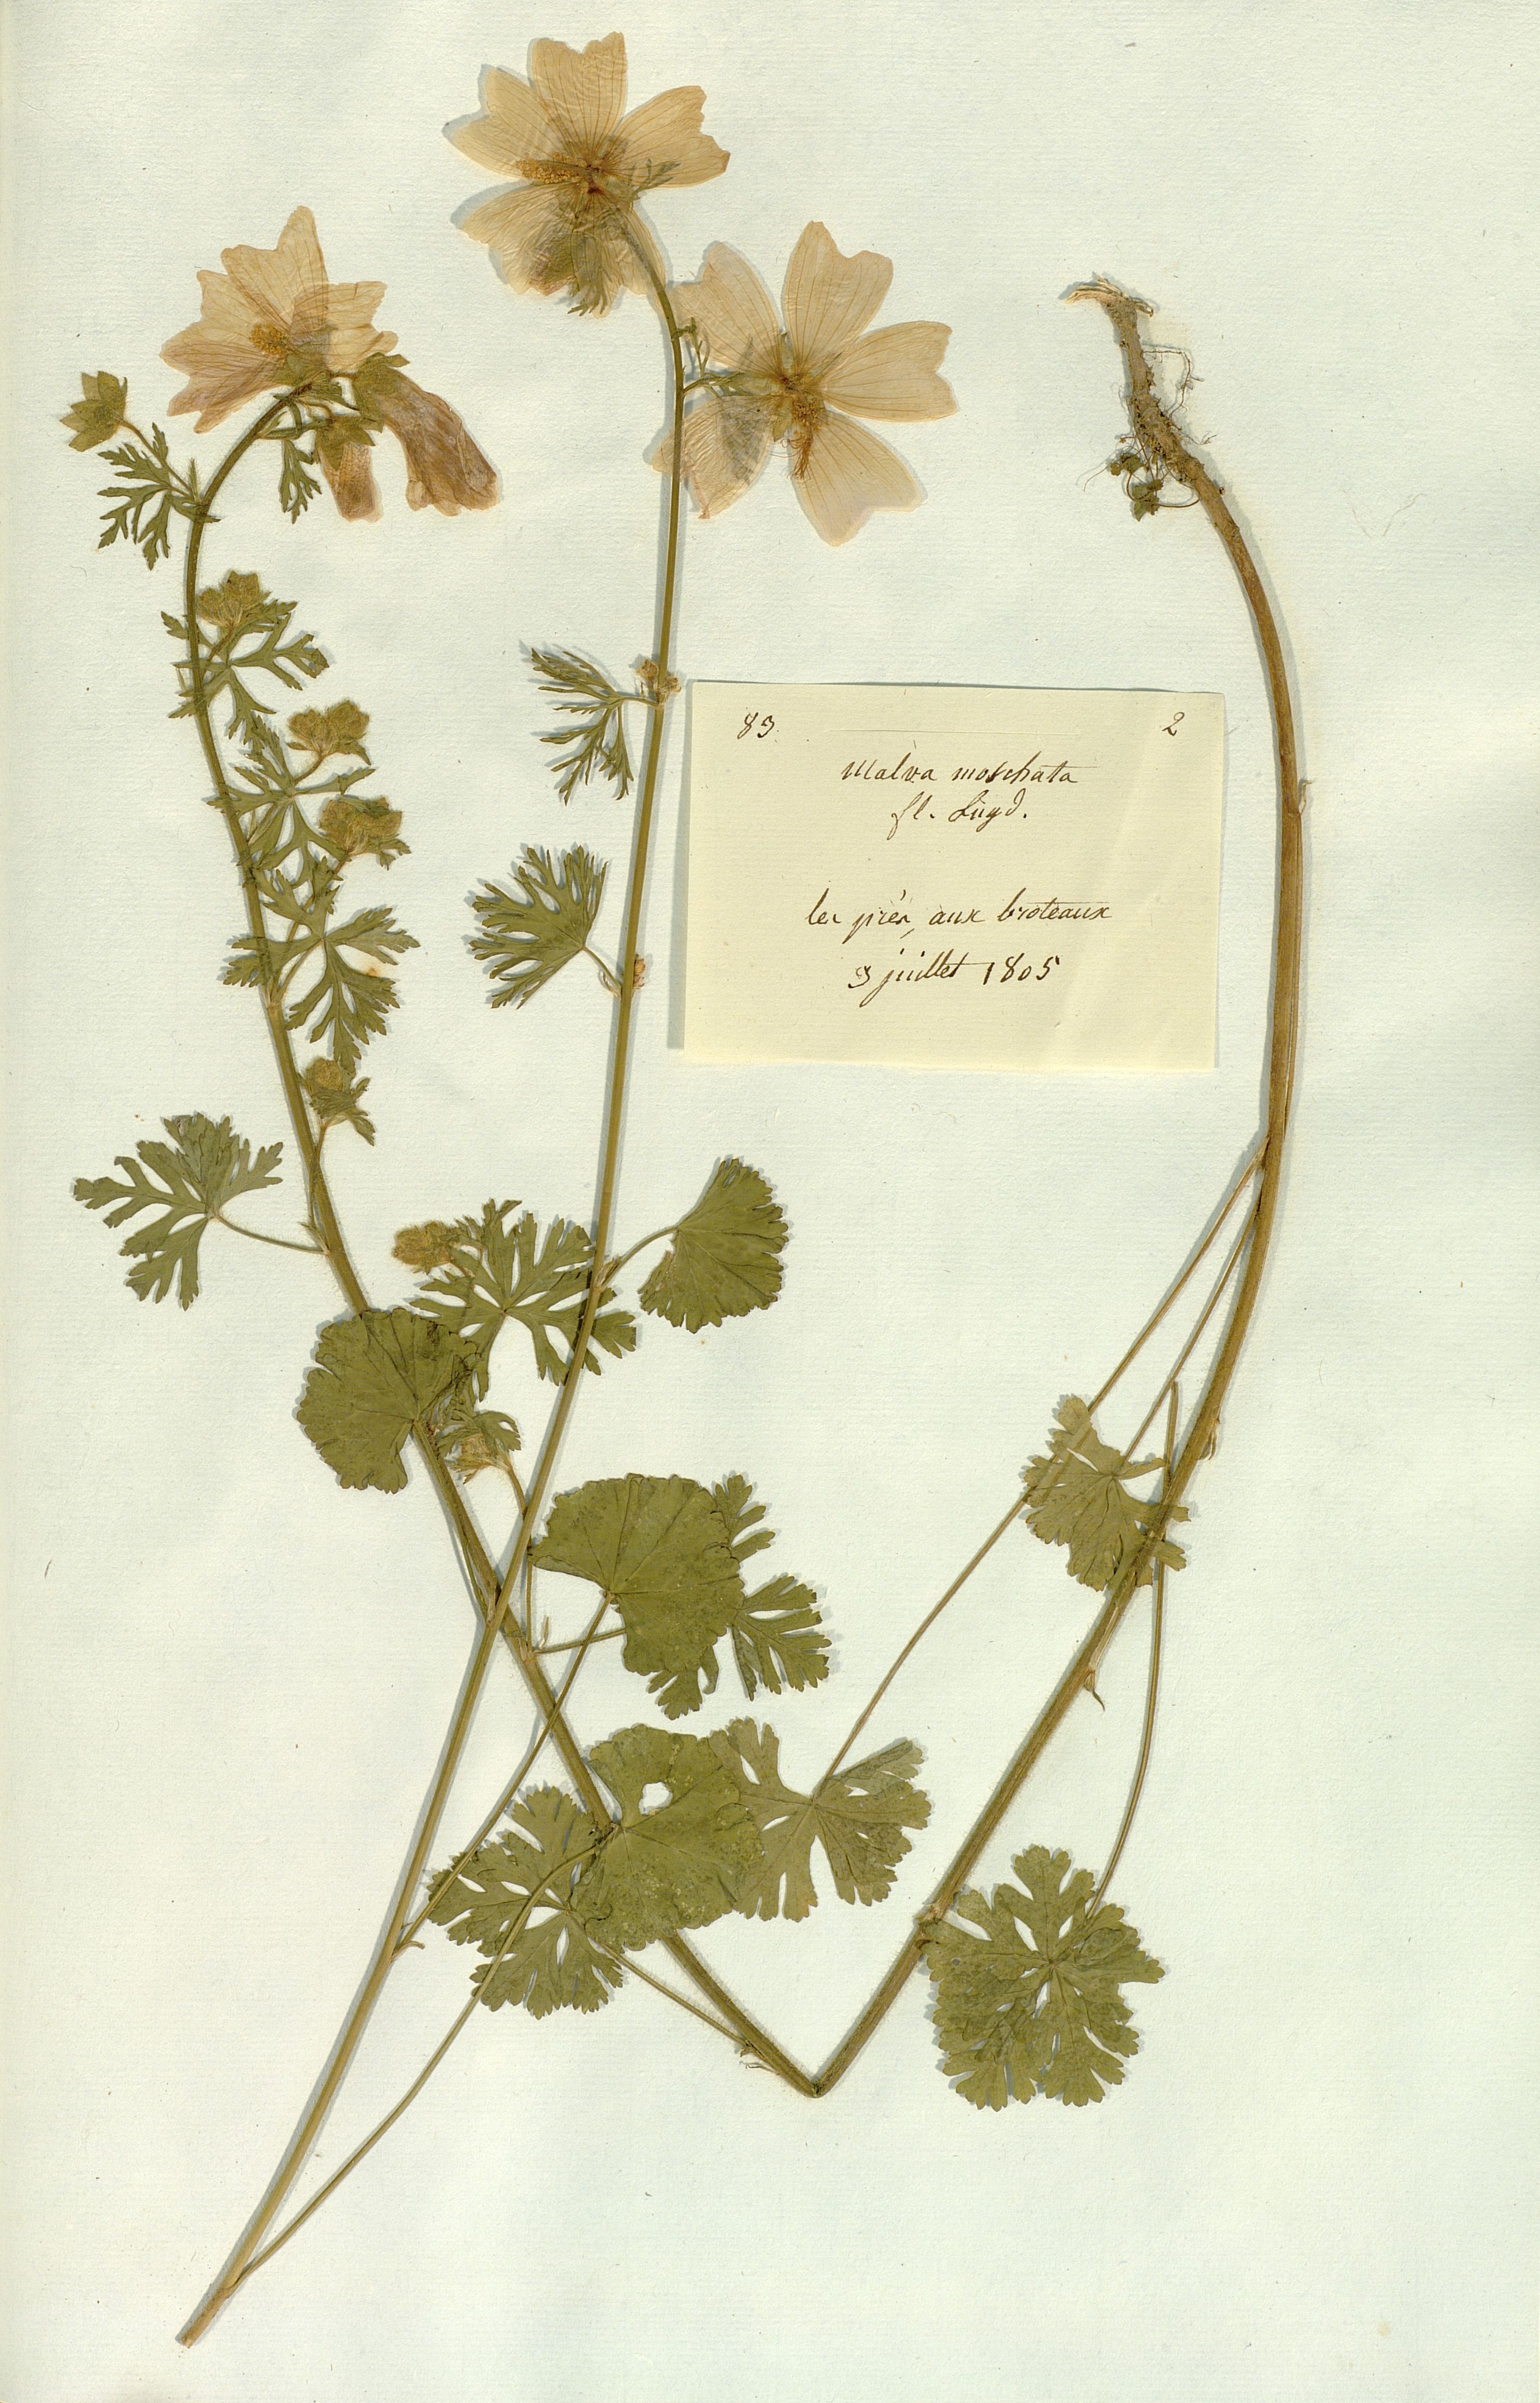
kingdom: Plantae
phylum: Tracheophyta
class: Magnoliopsida
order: Malvales
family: Malvaceae
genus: Malva
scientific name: Malva moschata
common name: Musk mallow
